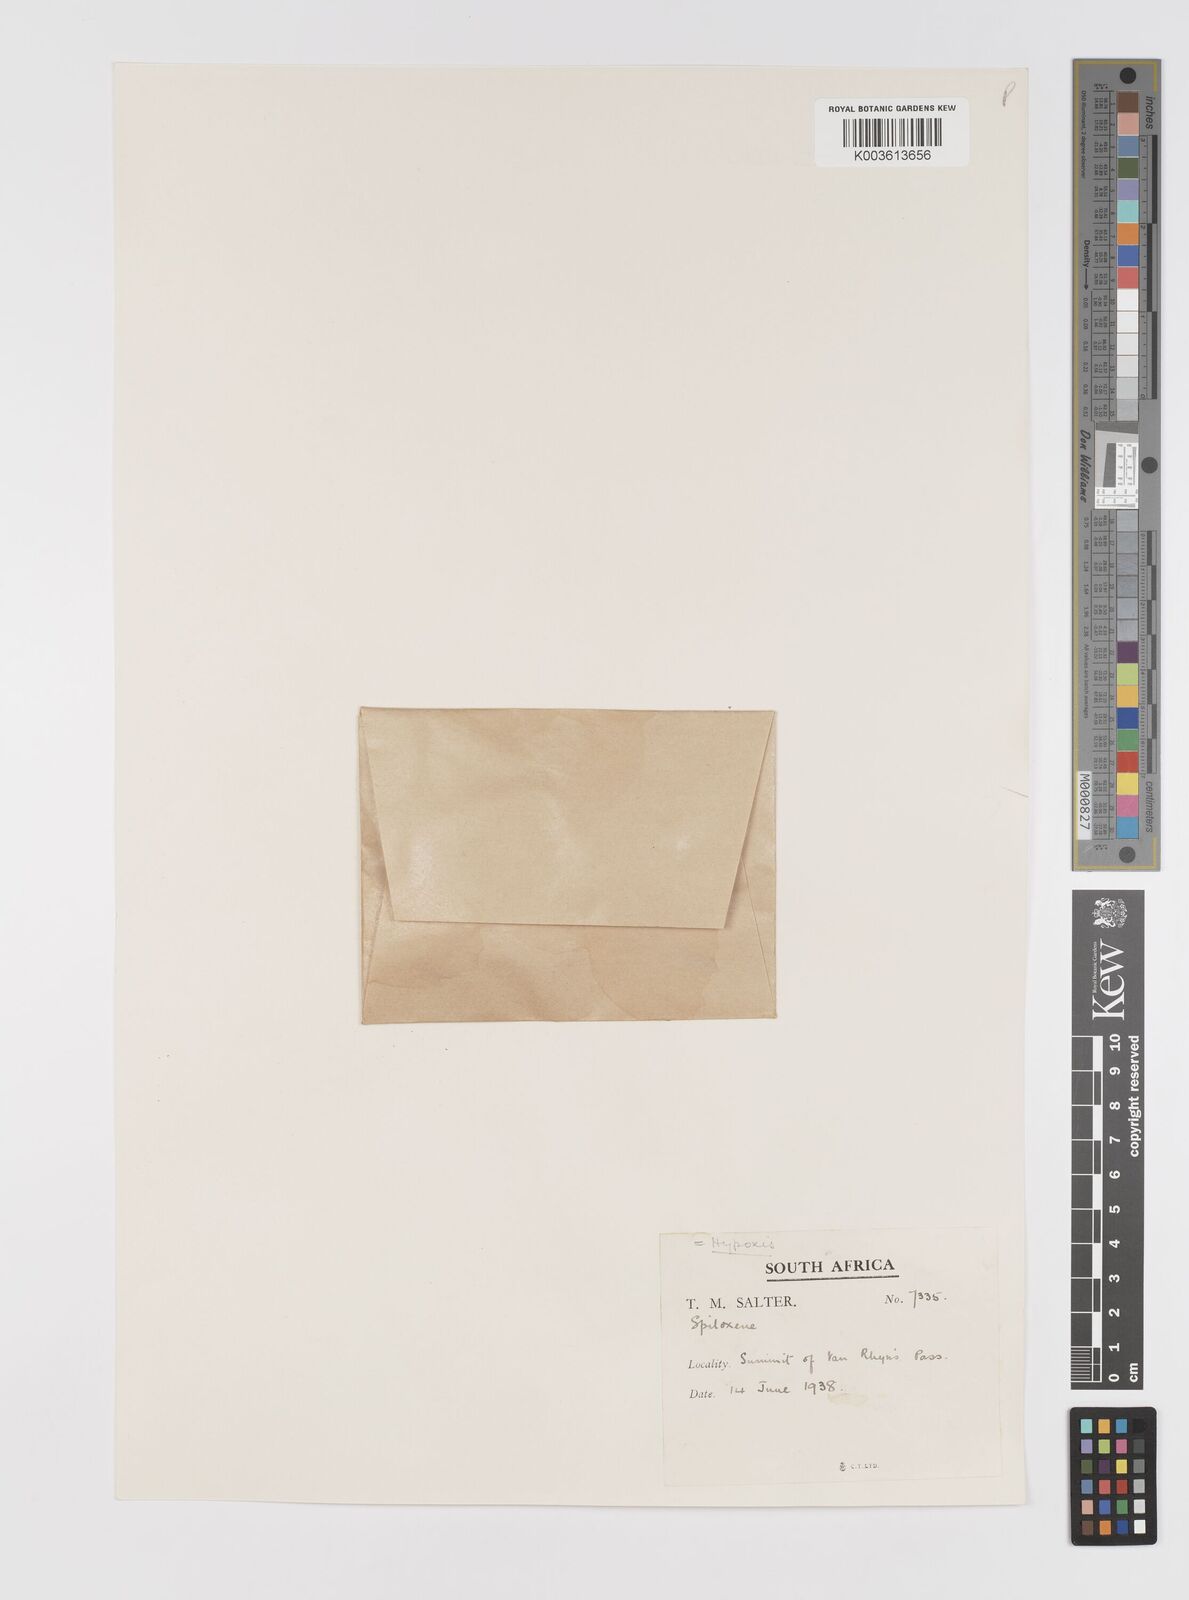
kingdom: Plantae
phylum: Tracheophyta
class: Liliopsida
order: Asparagales
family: Hypoxidaceae
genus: Pauridia
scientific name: Pauridia
